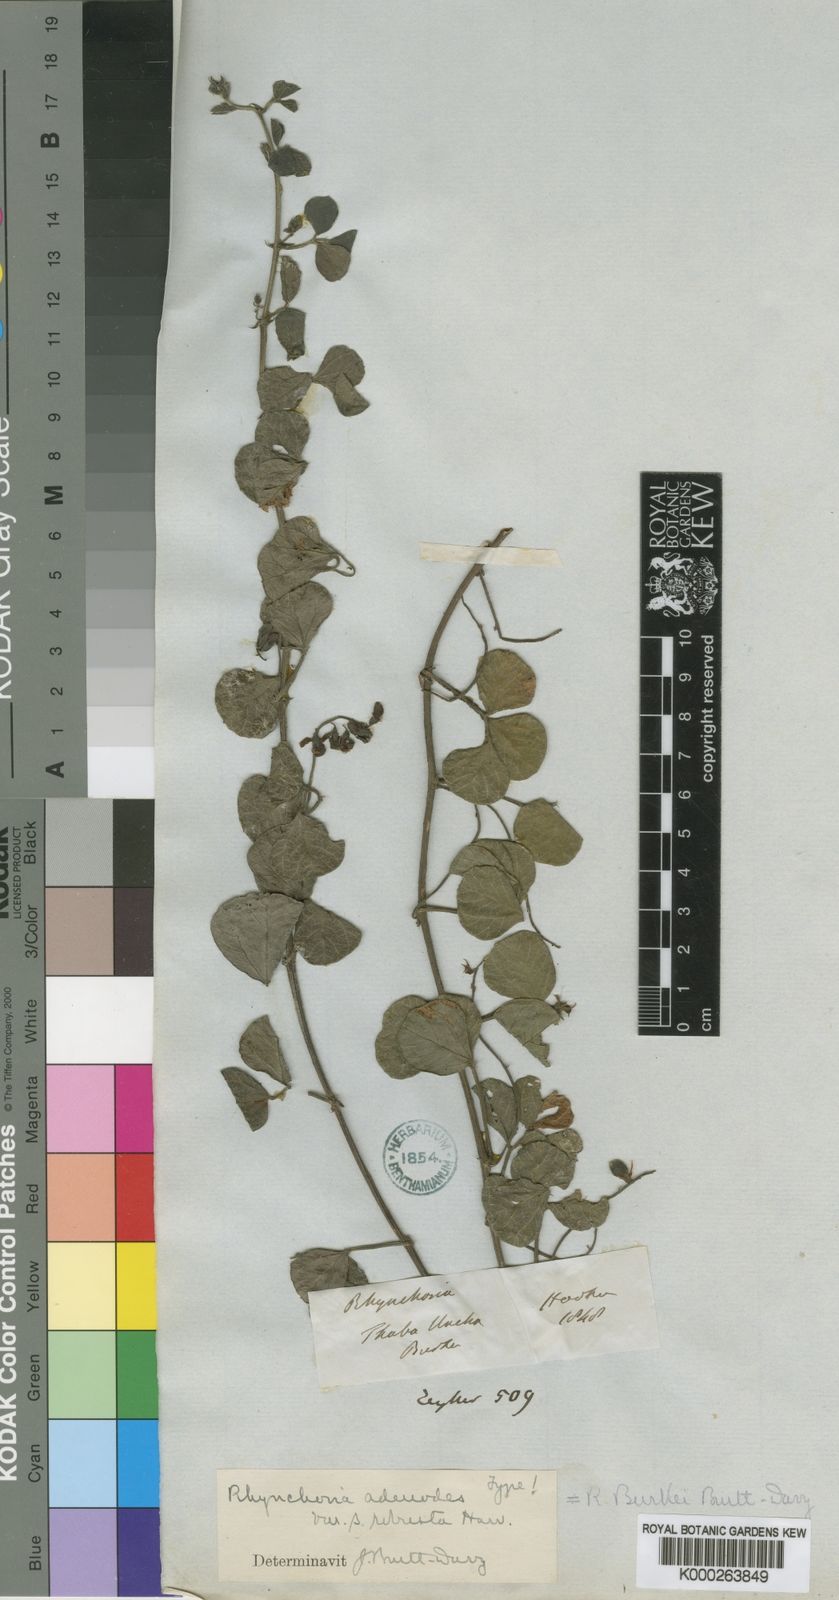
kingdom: Plantae
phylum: Tracheophyta
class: Magnoliopsida
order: Fabales
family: Fabaceae
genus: Rhynchosia
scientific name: Rhynchosia adenodes
